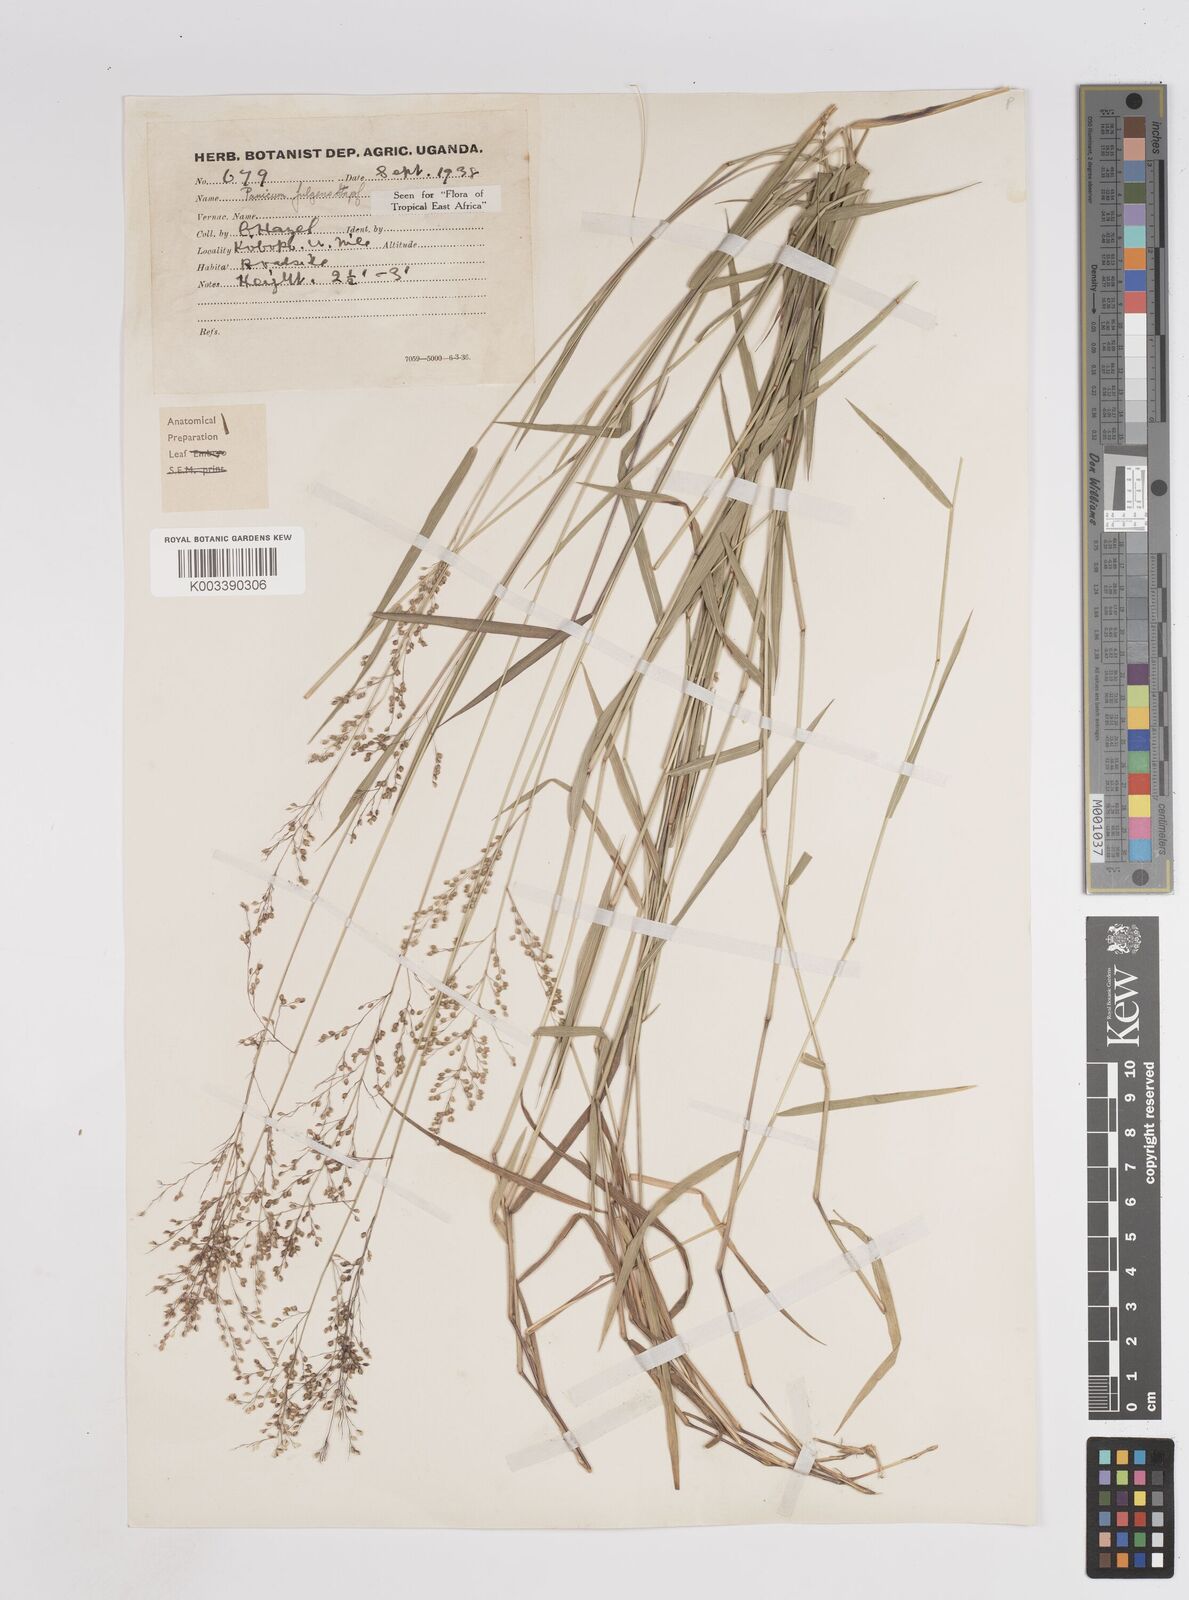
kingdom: Plantae
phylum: Tracheophyta
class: Liliopsida
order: Poales
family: Poaceae
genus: Trichanthecium
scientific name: Trichanthecium nervatum
